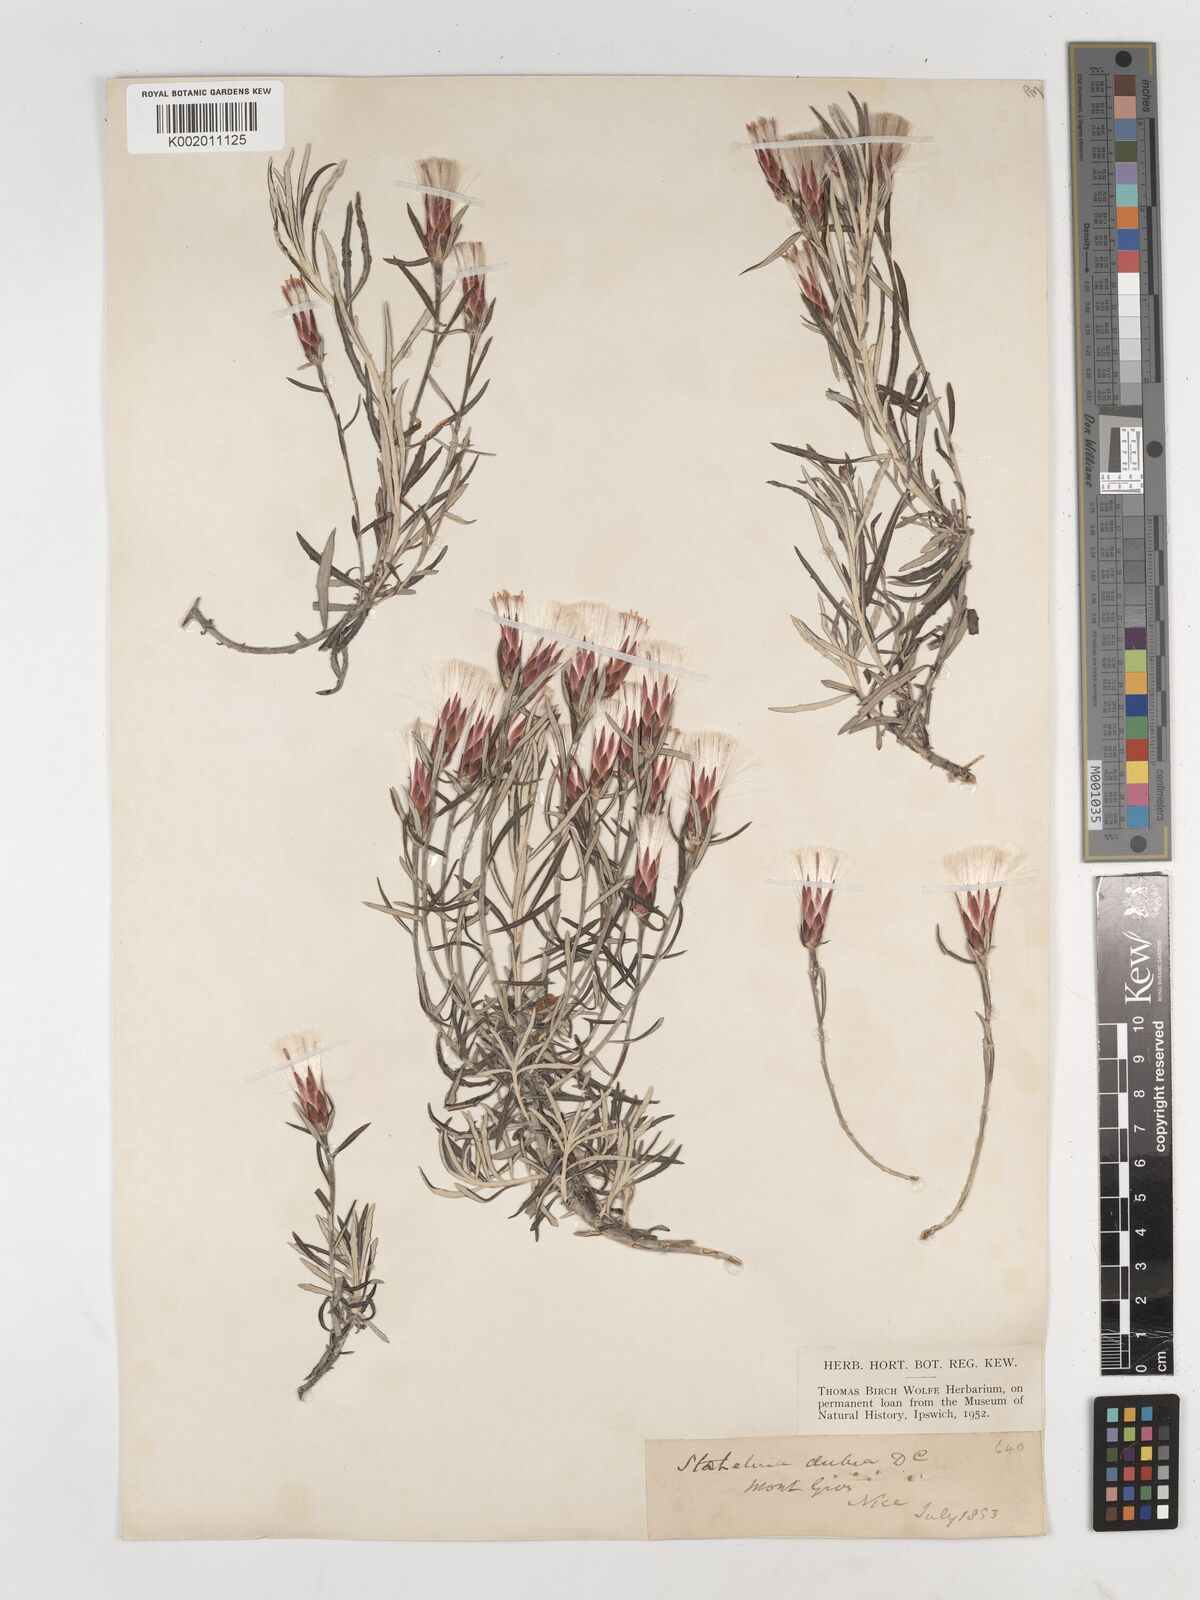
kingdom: Plantae
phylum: Tracheophyta
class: Magnoliopsida
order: Asterales
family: Asteraceae
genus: Staehelina
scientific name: Staehelina dubia
